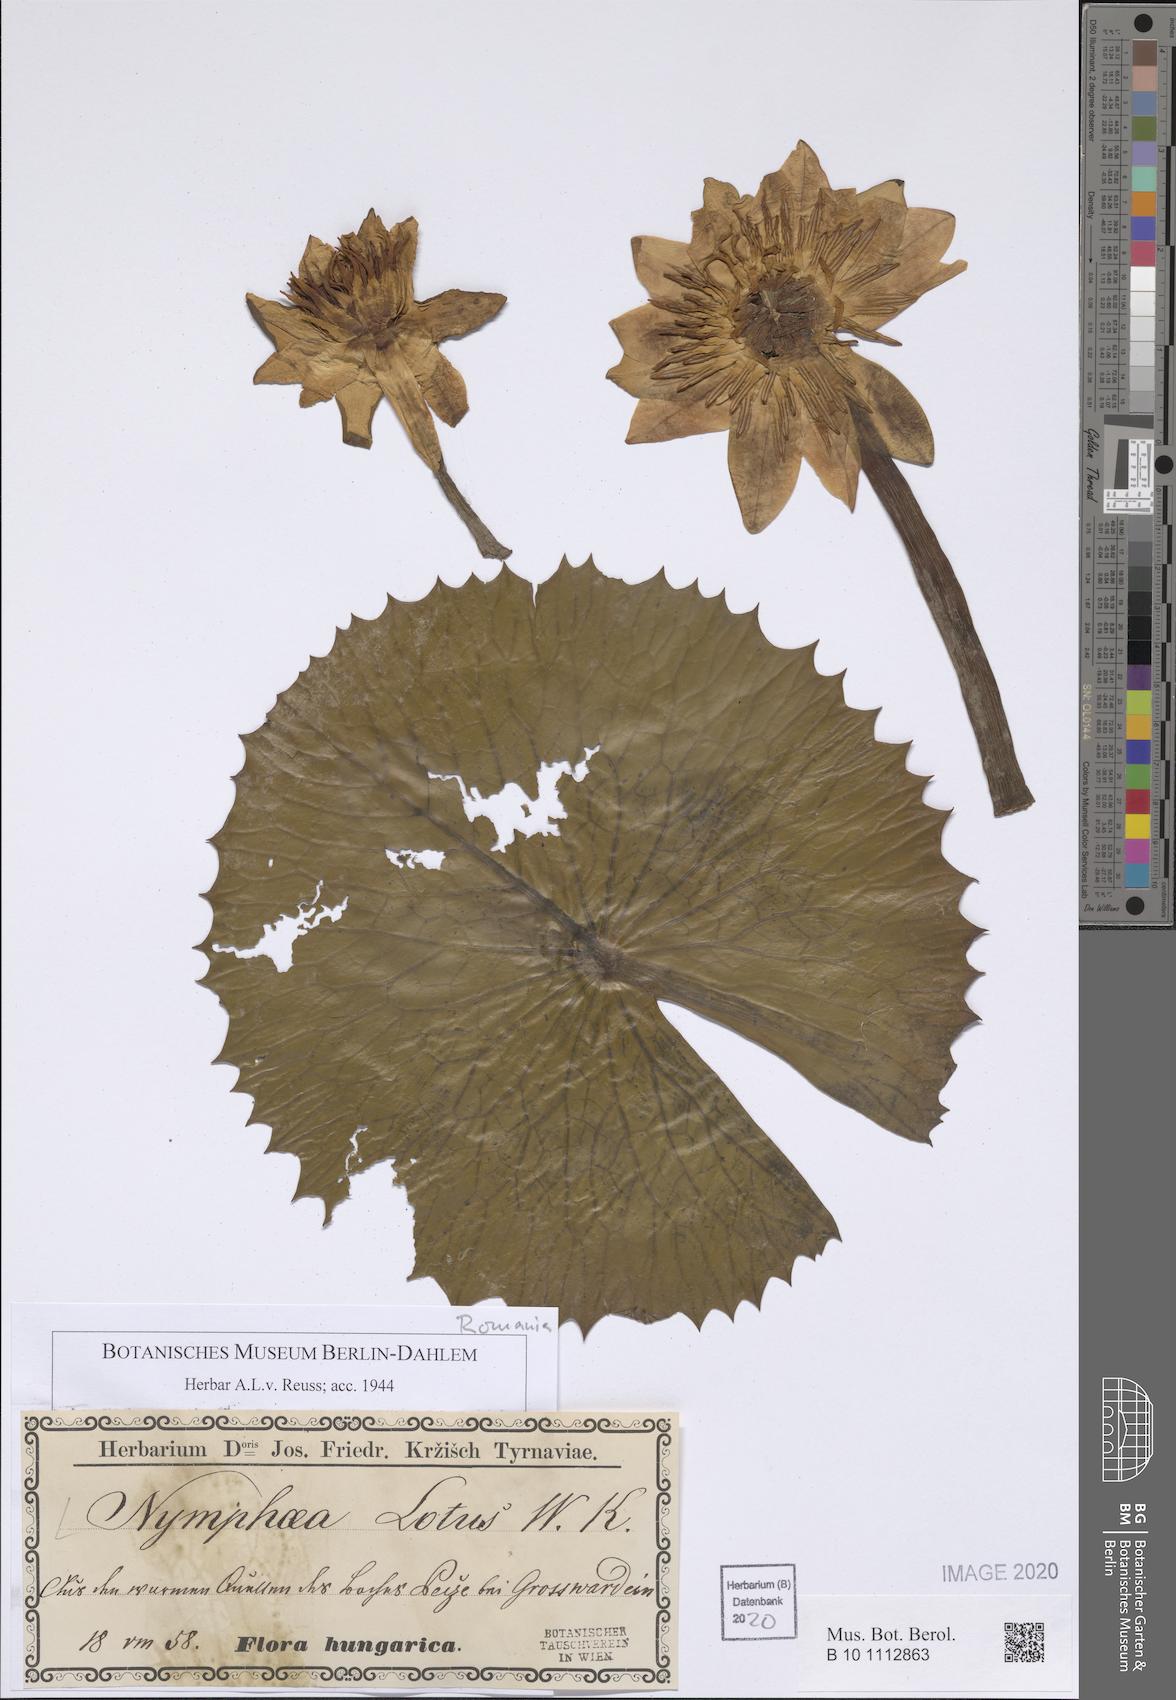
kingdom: Plantae
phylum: Tracheophyta
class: Magnoliopsida
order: Nymphaeales
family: Nymphaeaceae
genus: Nymphaea
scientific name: Nymphaea lotus
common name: White egyptian lotus
